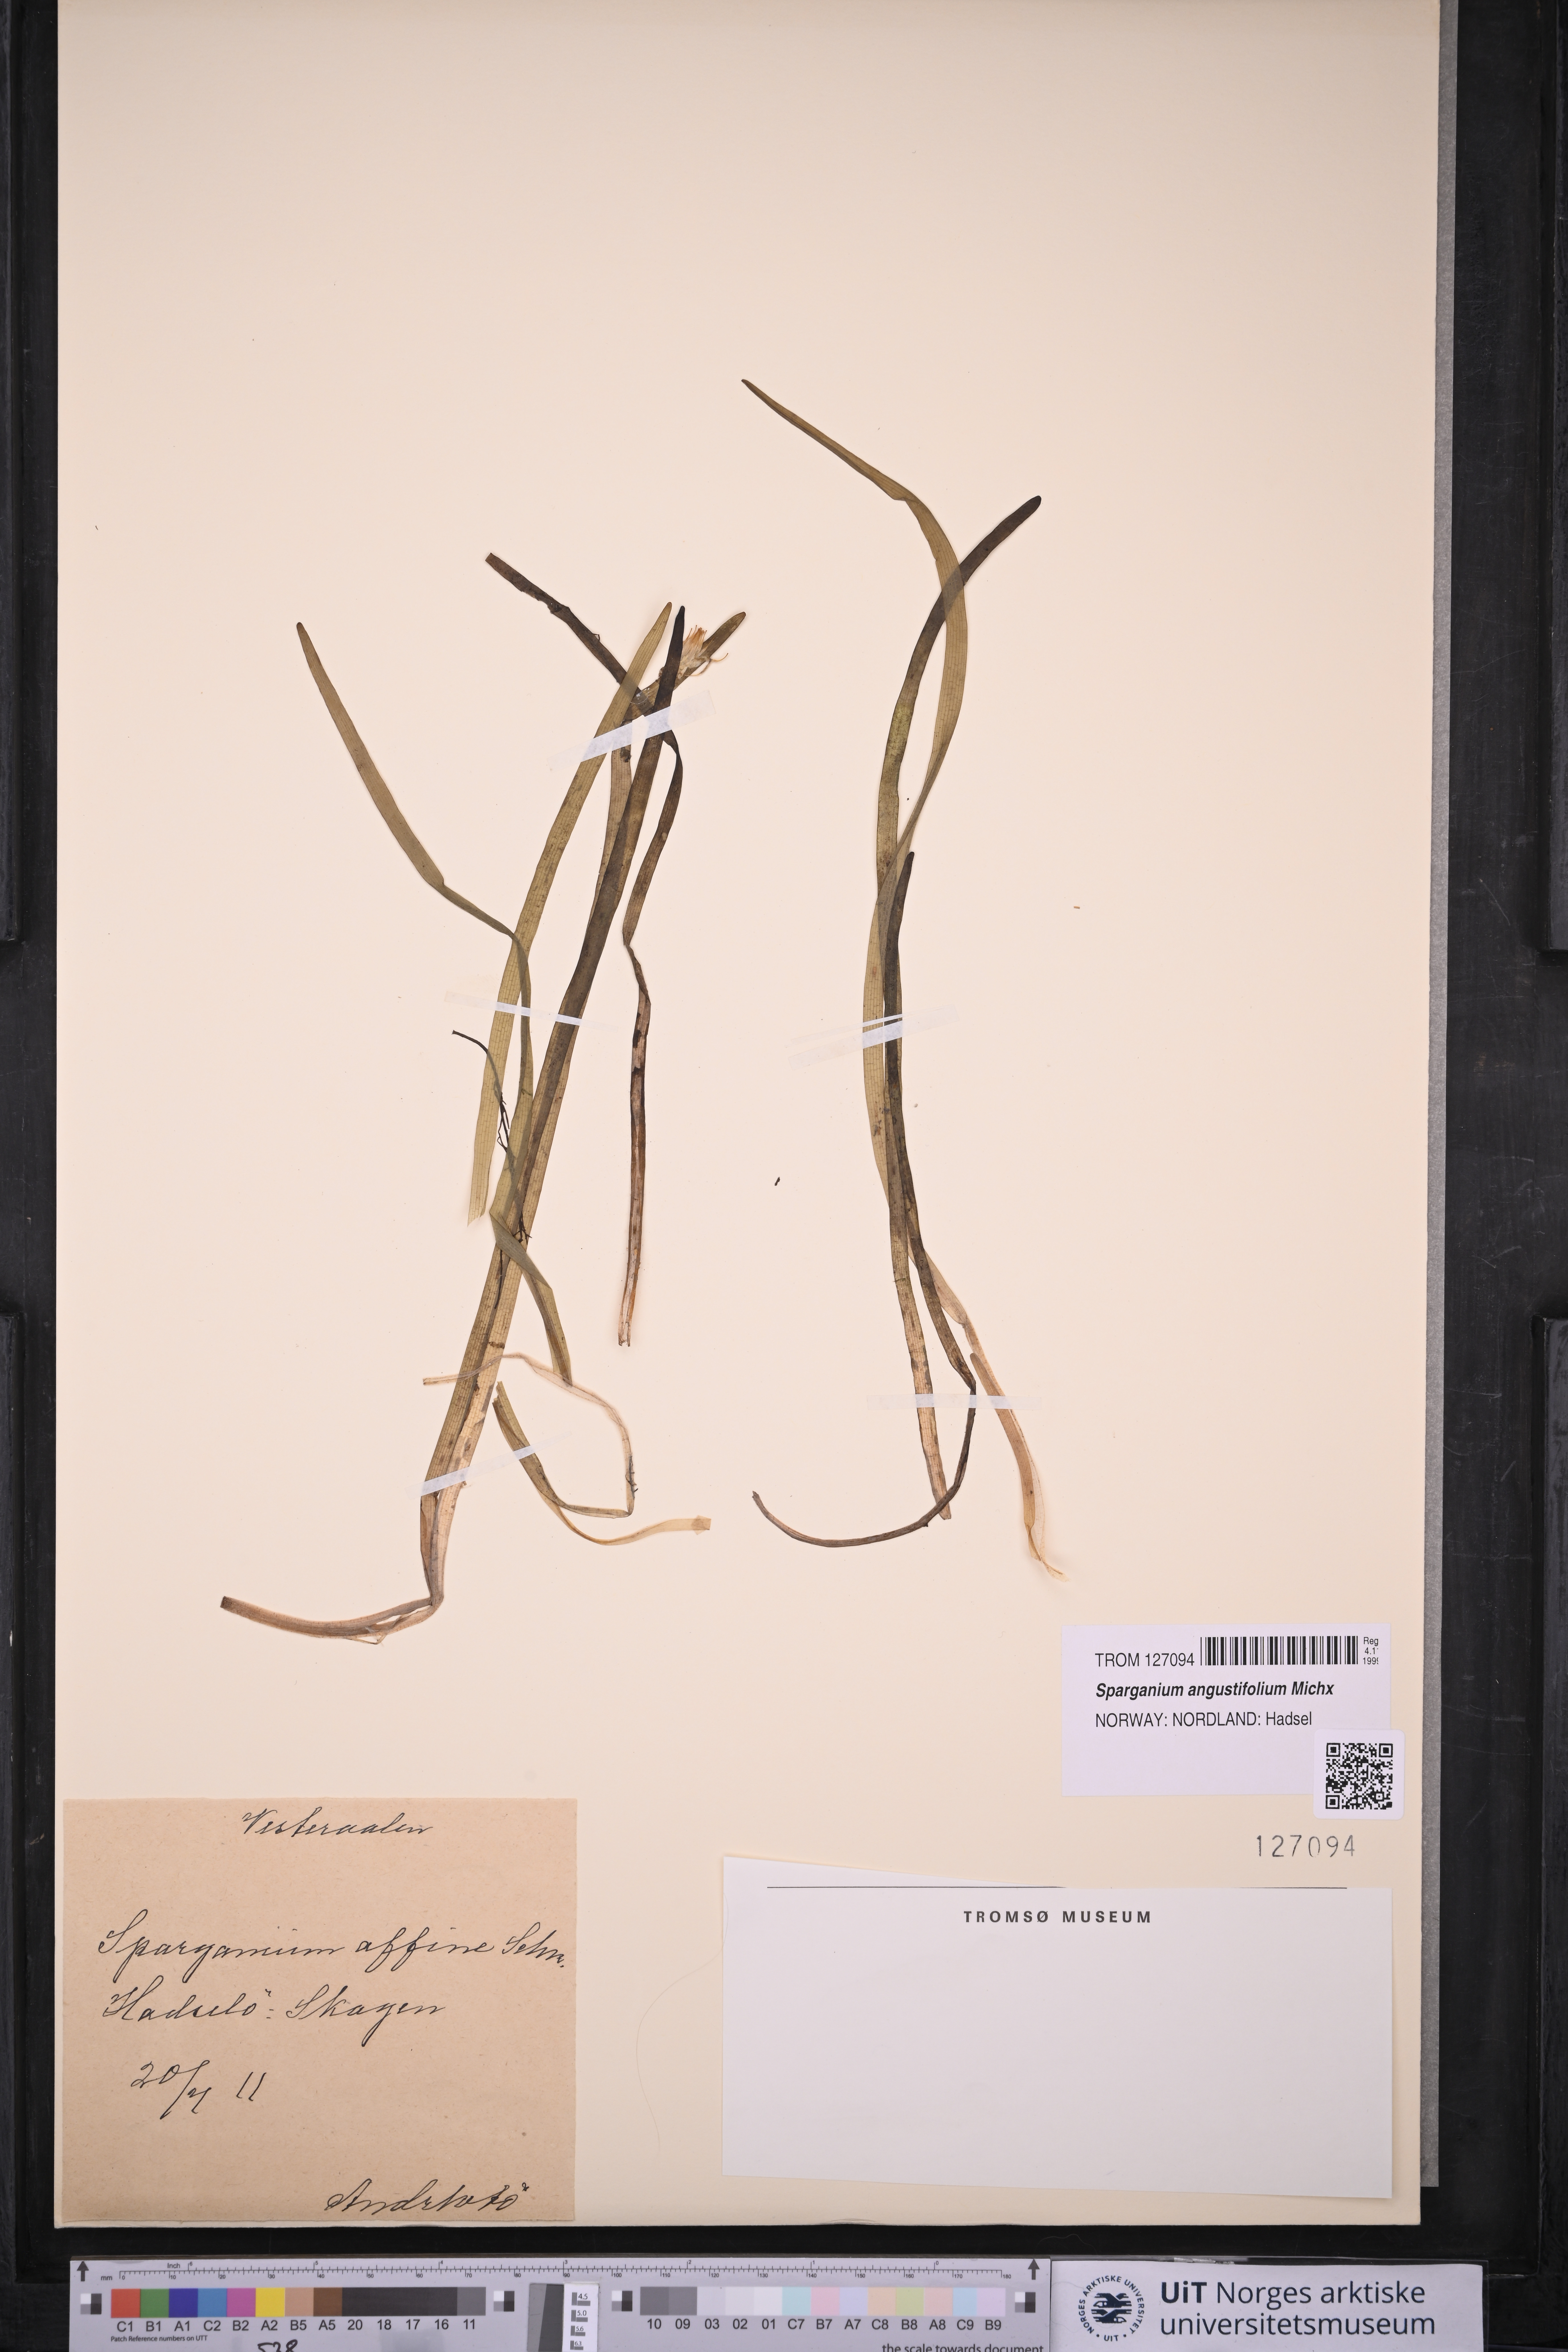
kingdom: Plantae
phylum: Tracheophyta
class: Liliopsida
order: Poales
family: Typhaceae
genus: Sparganium
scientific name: Sparganium angustifolium
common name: Floating bur-reed
